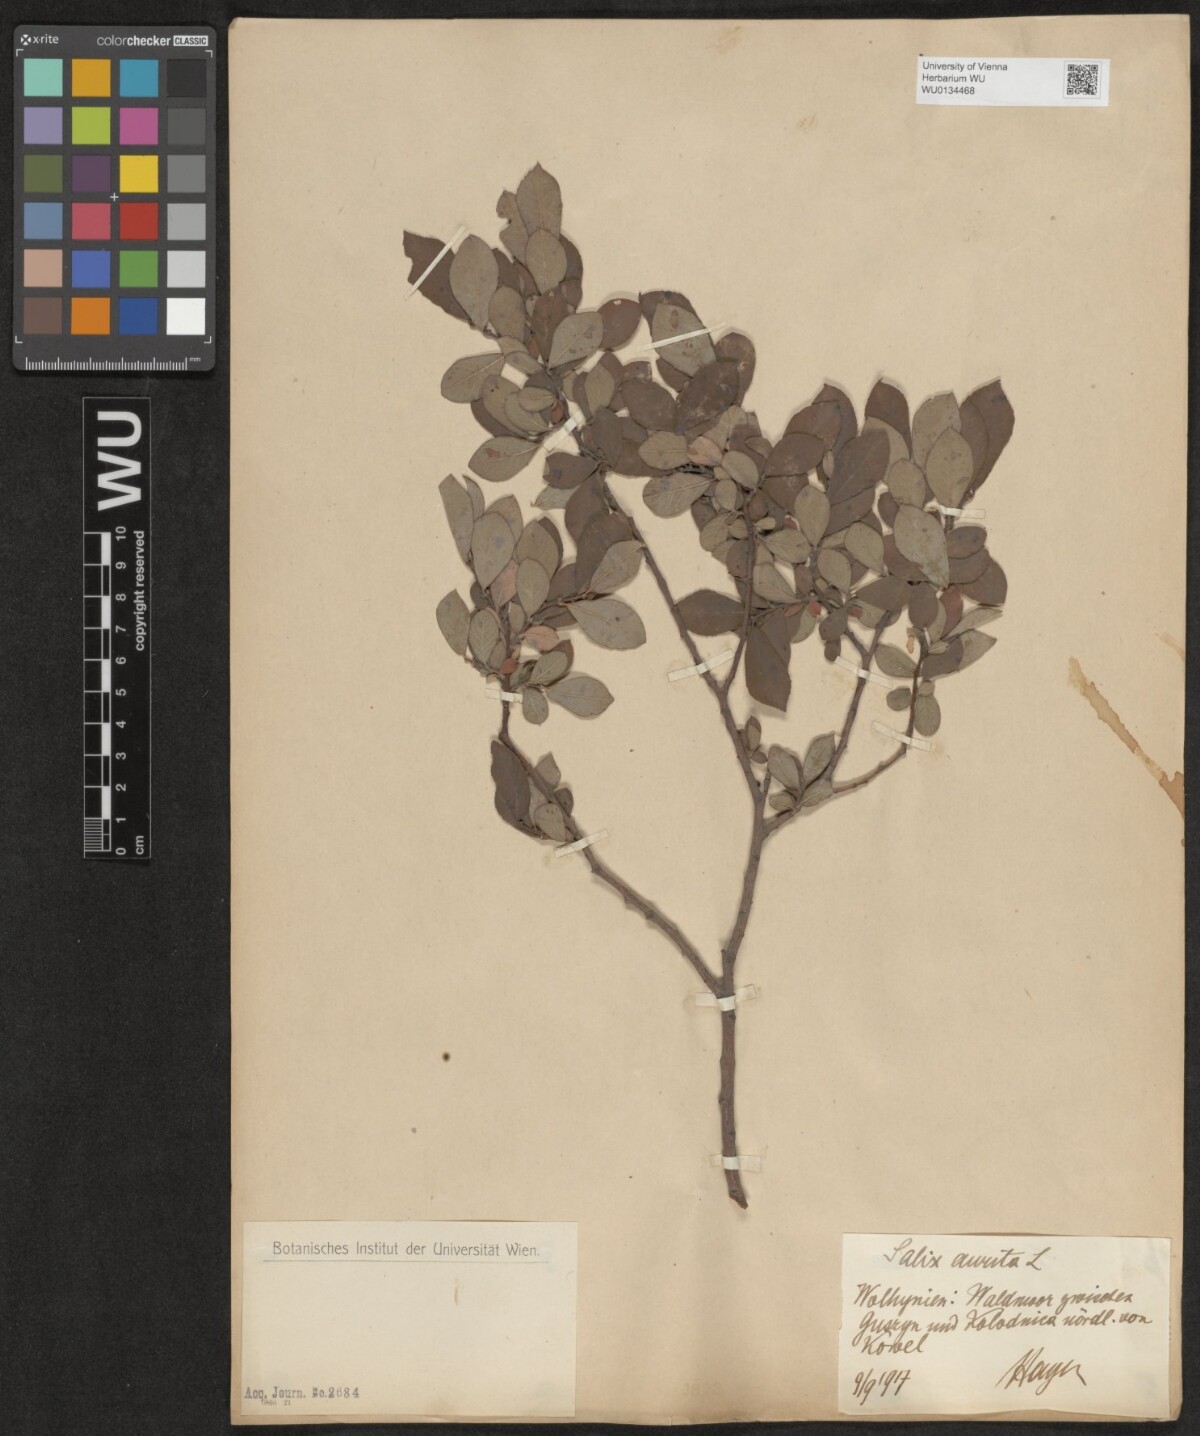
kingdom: Plantae
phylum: Tracheophyta
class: Magnoliopsida
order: Malpighiales
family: Salicaceae
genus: Salix
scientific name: Salix aurita
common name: Eared willow
